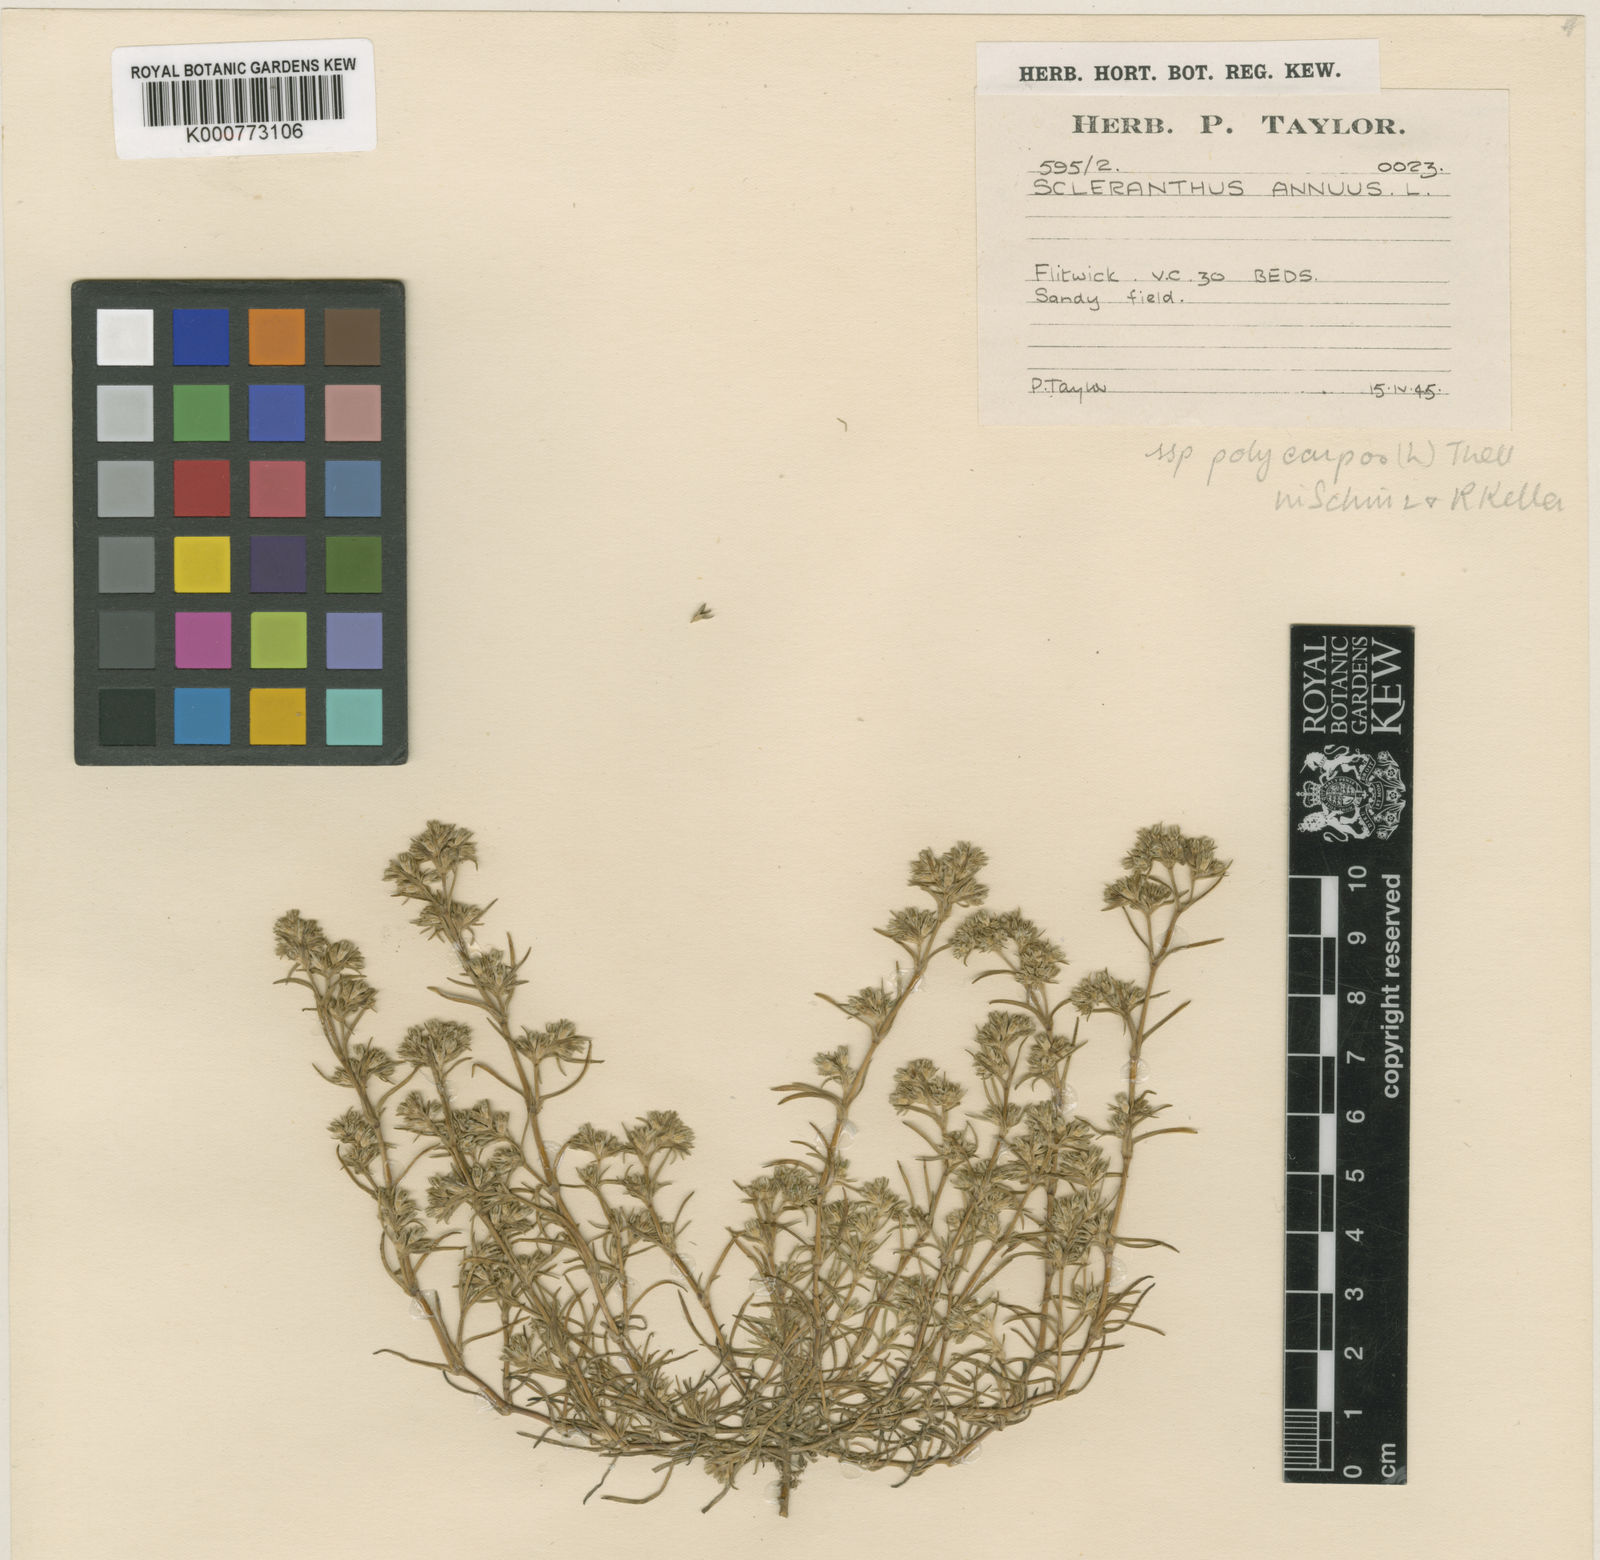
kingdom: Plantae
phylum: Tracheophyta
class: Magnoliopsida
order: Caryophyllales
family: Caryophyllaceae
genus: Scleranthus
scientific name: Scleranthus annuus
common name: Annual knawel
